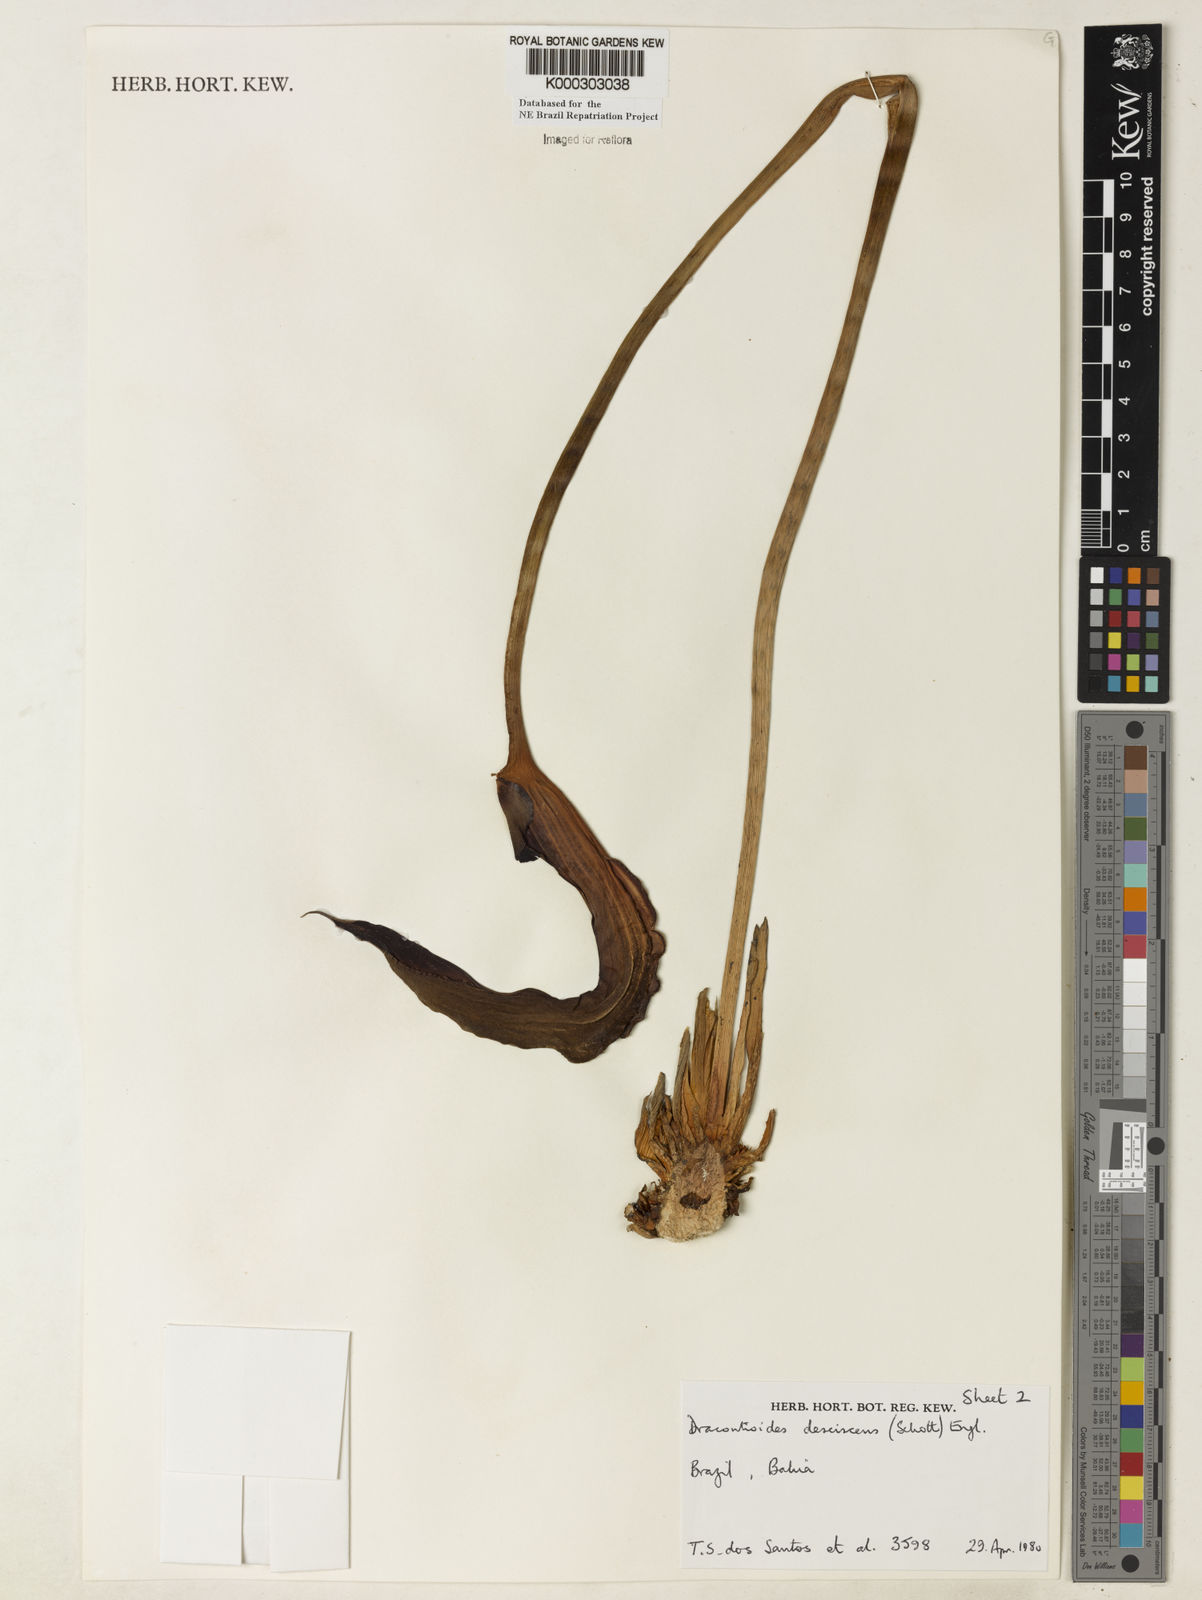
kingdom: Plantae
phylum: Tracheophyta
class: Liliopsida
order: Alismatales
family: Araceae
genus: Dracontioides
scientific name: Dracontioides desciscens
